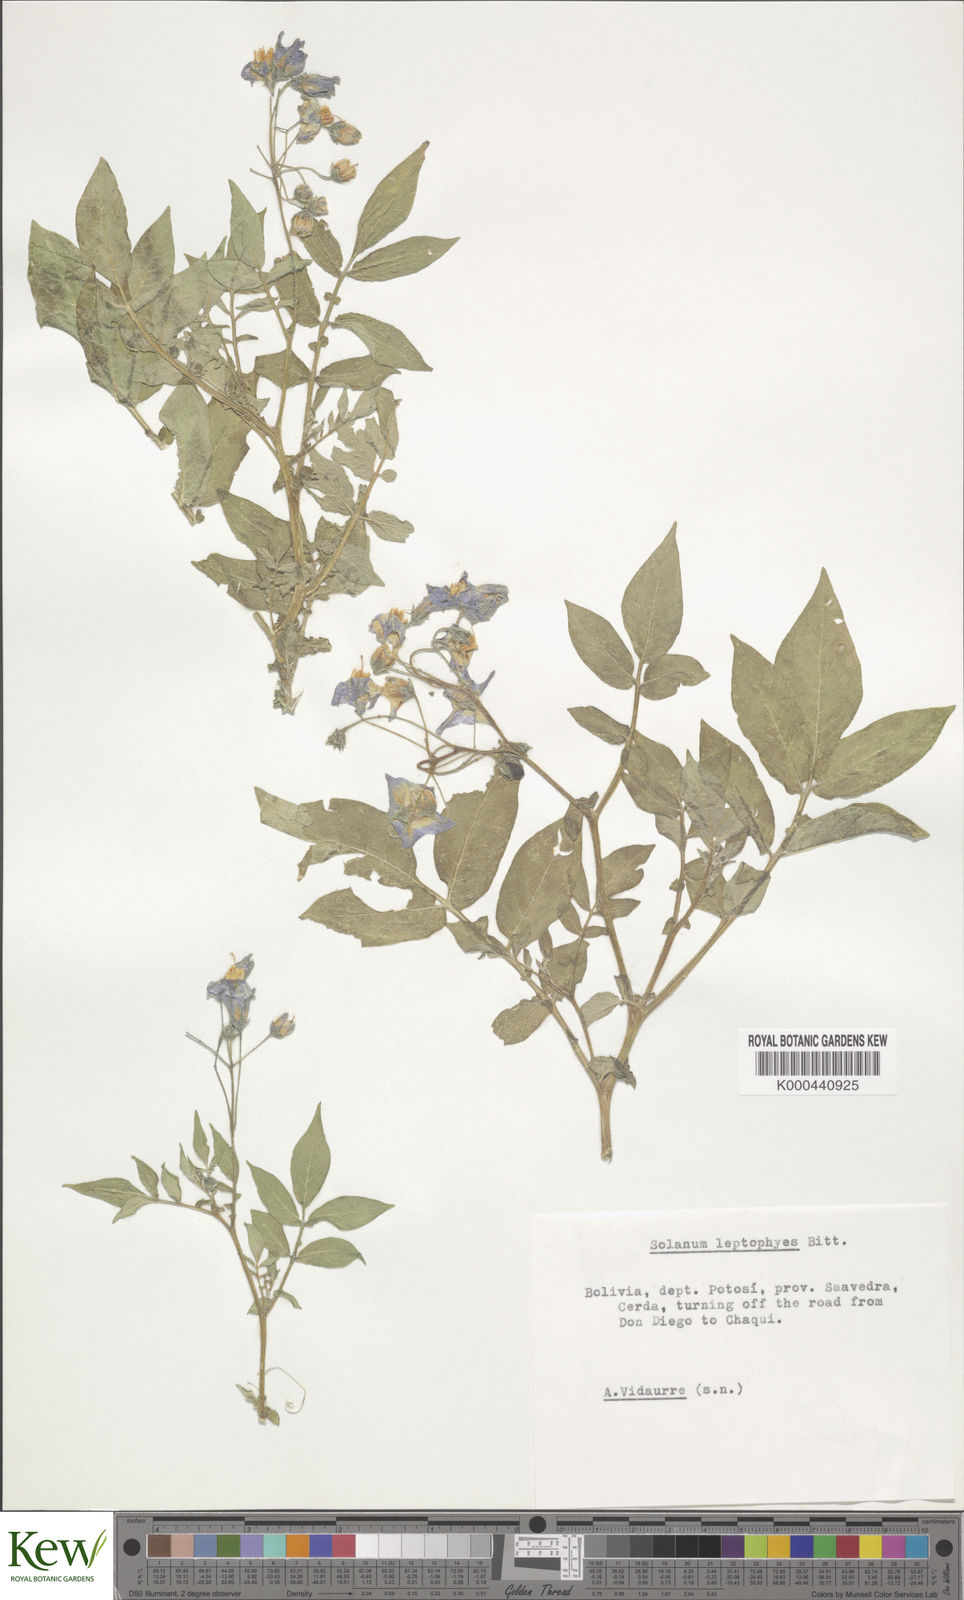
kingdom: Plantae
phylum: Tracheophyta
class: Magnoliopsida
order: Solanales
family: Solanaceae
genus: Solanum
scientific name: Solanum brevicaule
